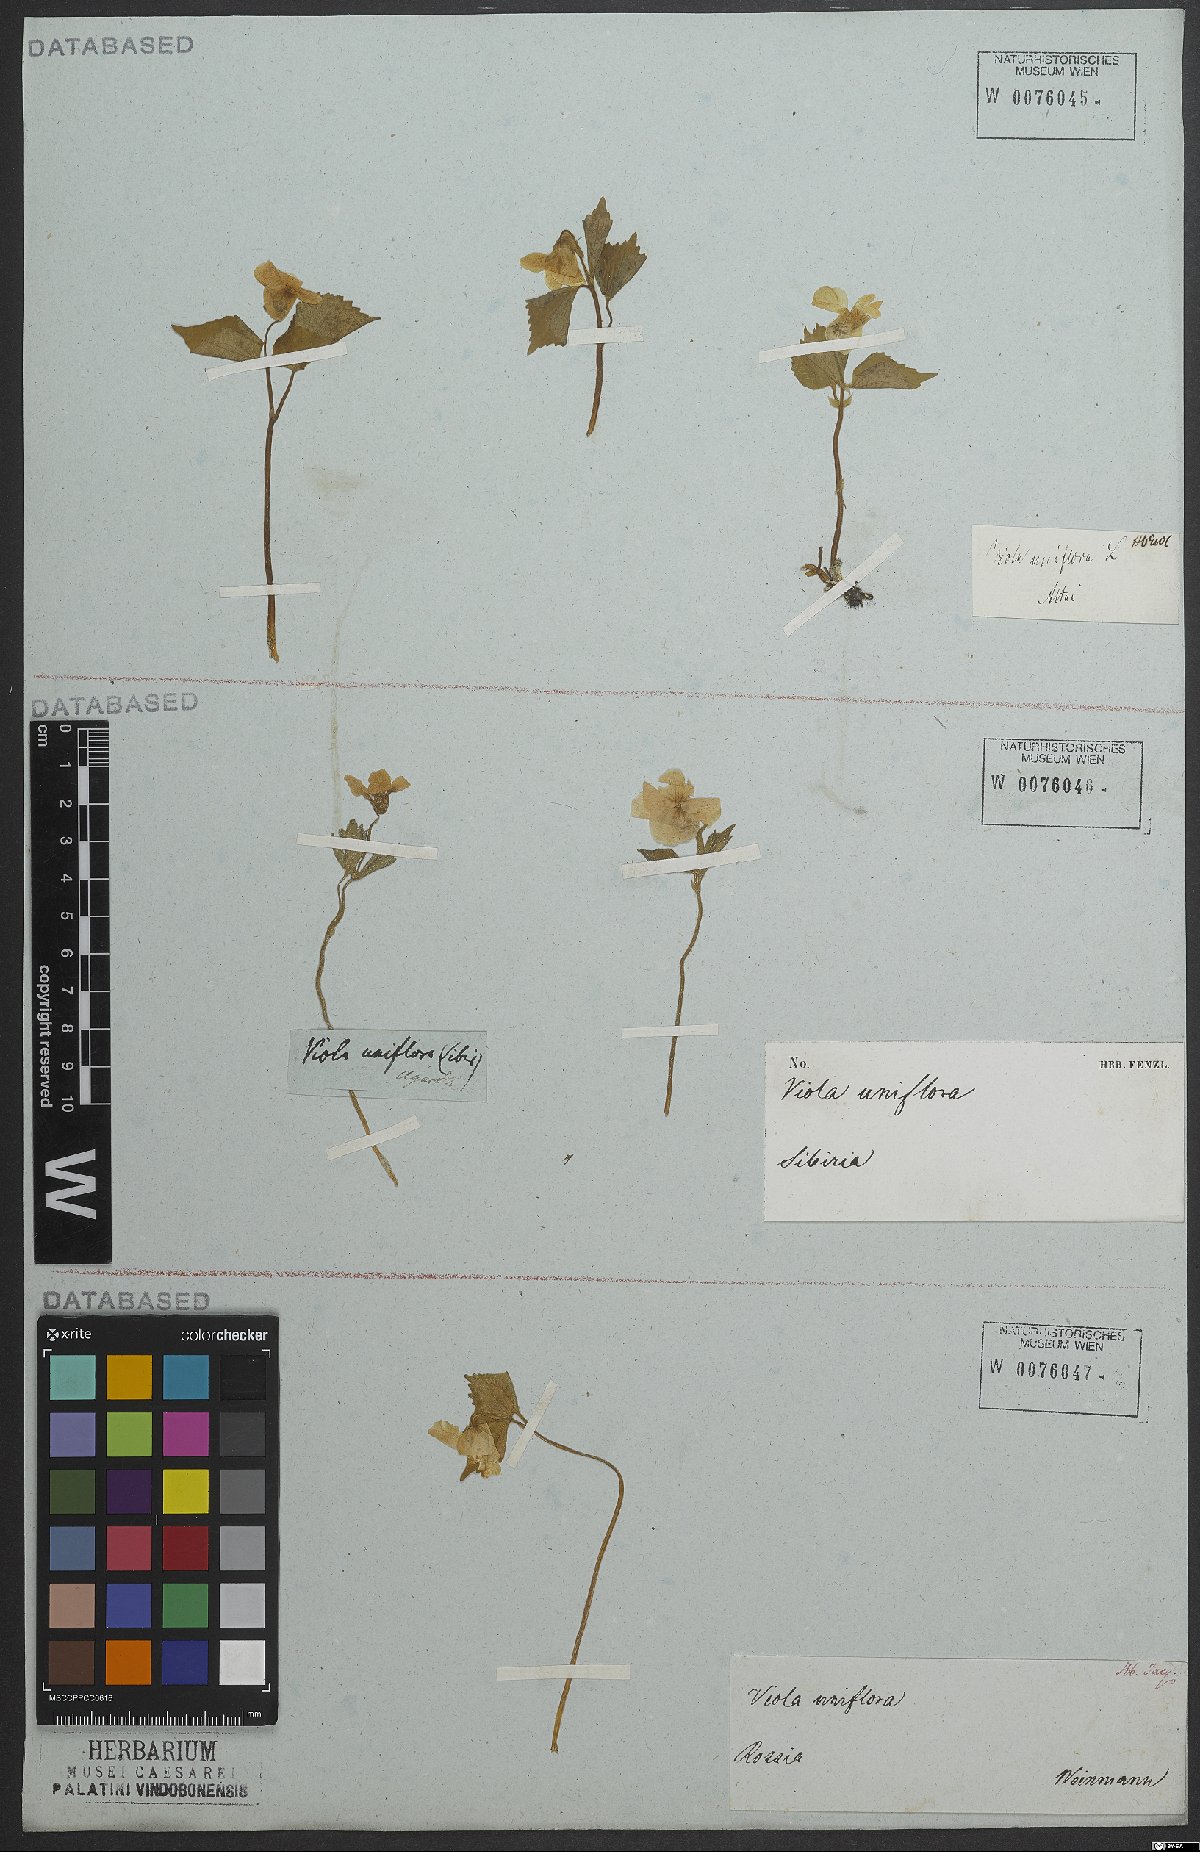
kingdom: Plantae
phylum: Tracheophyta
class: Magnoliopsida
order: Malpighiales
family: Violaceae
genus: Viola
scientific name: Viola uniflora
